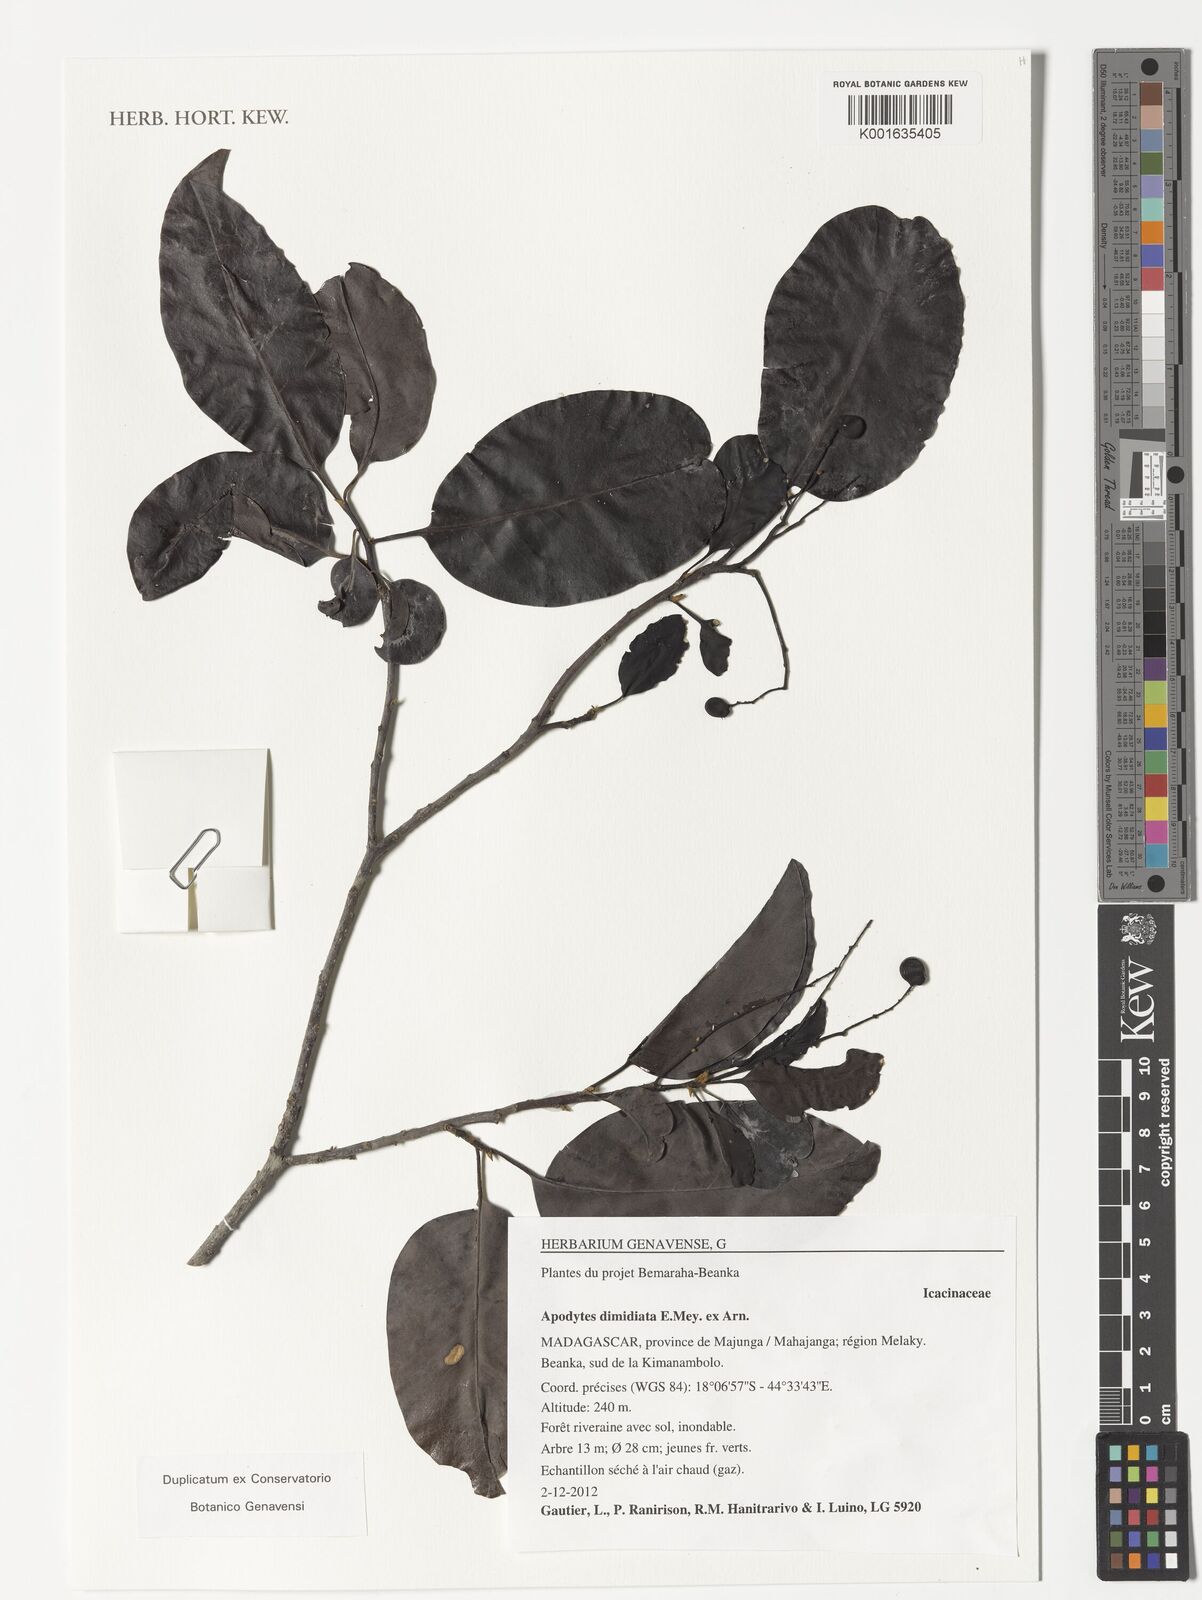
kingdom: Plantae
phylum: Tracheophyta
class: Magnoliopsida
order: Metteniusales
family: Metteniusaceae
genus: Apodytes
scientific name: Apodytes dimidiata
